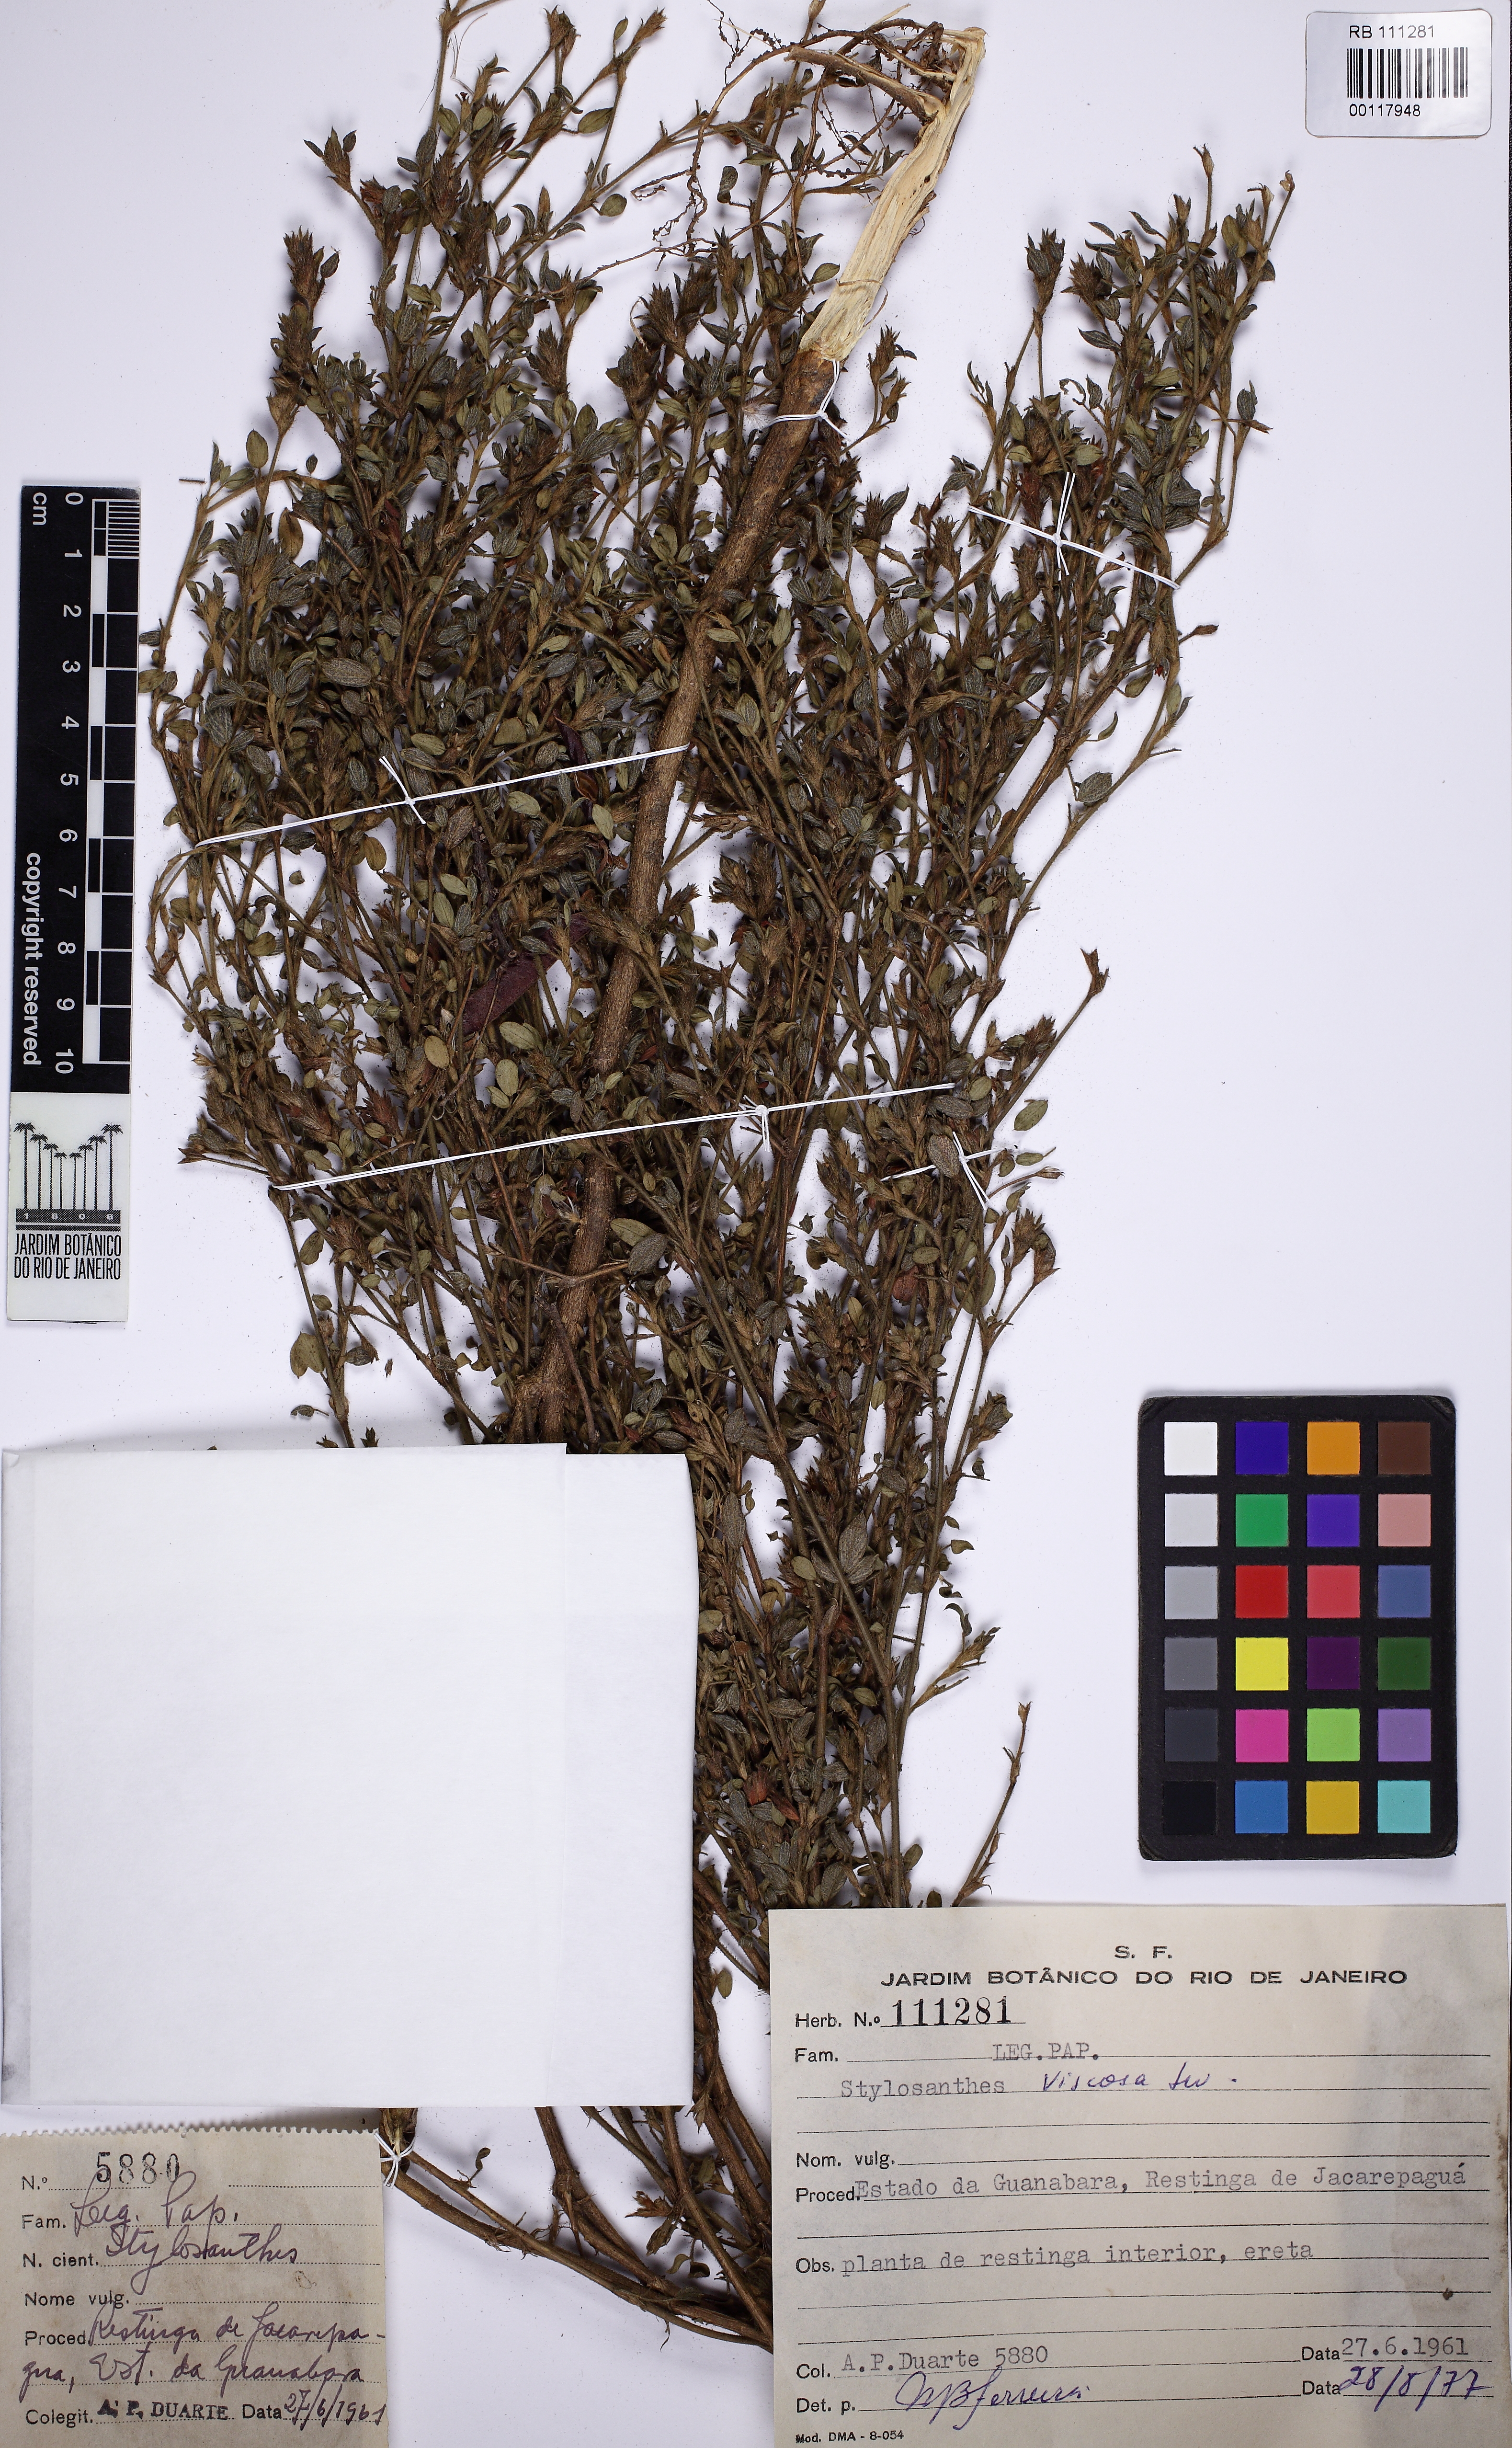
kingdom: Plantae
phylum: Tracheophyta
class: Magnoliopsida
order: Fabales
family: Fabaceae
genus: Stylosanthes
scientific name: Stylosanthes viscosa
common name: Viscid pencil-flower
